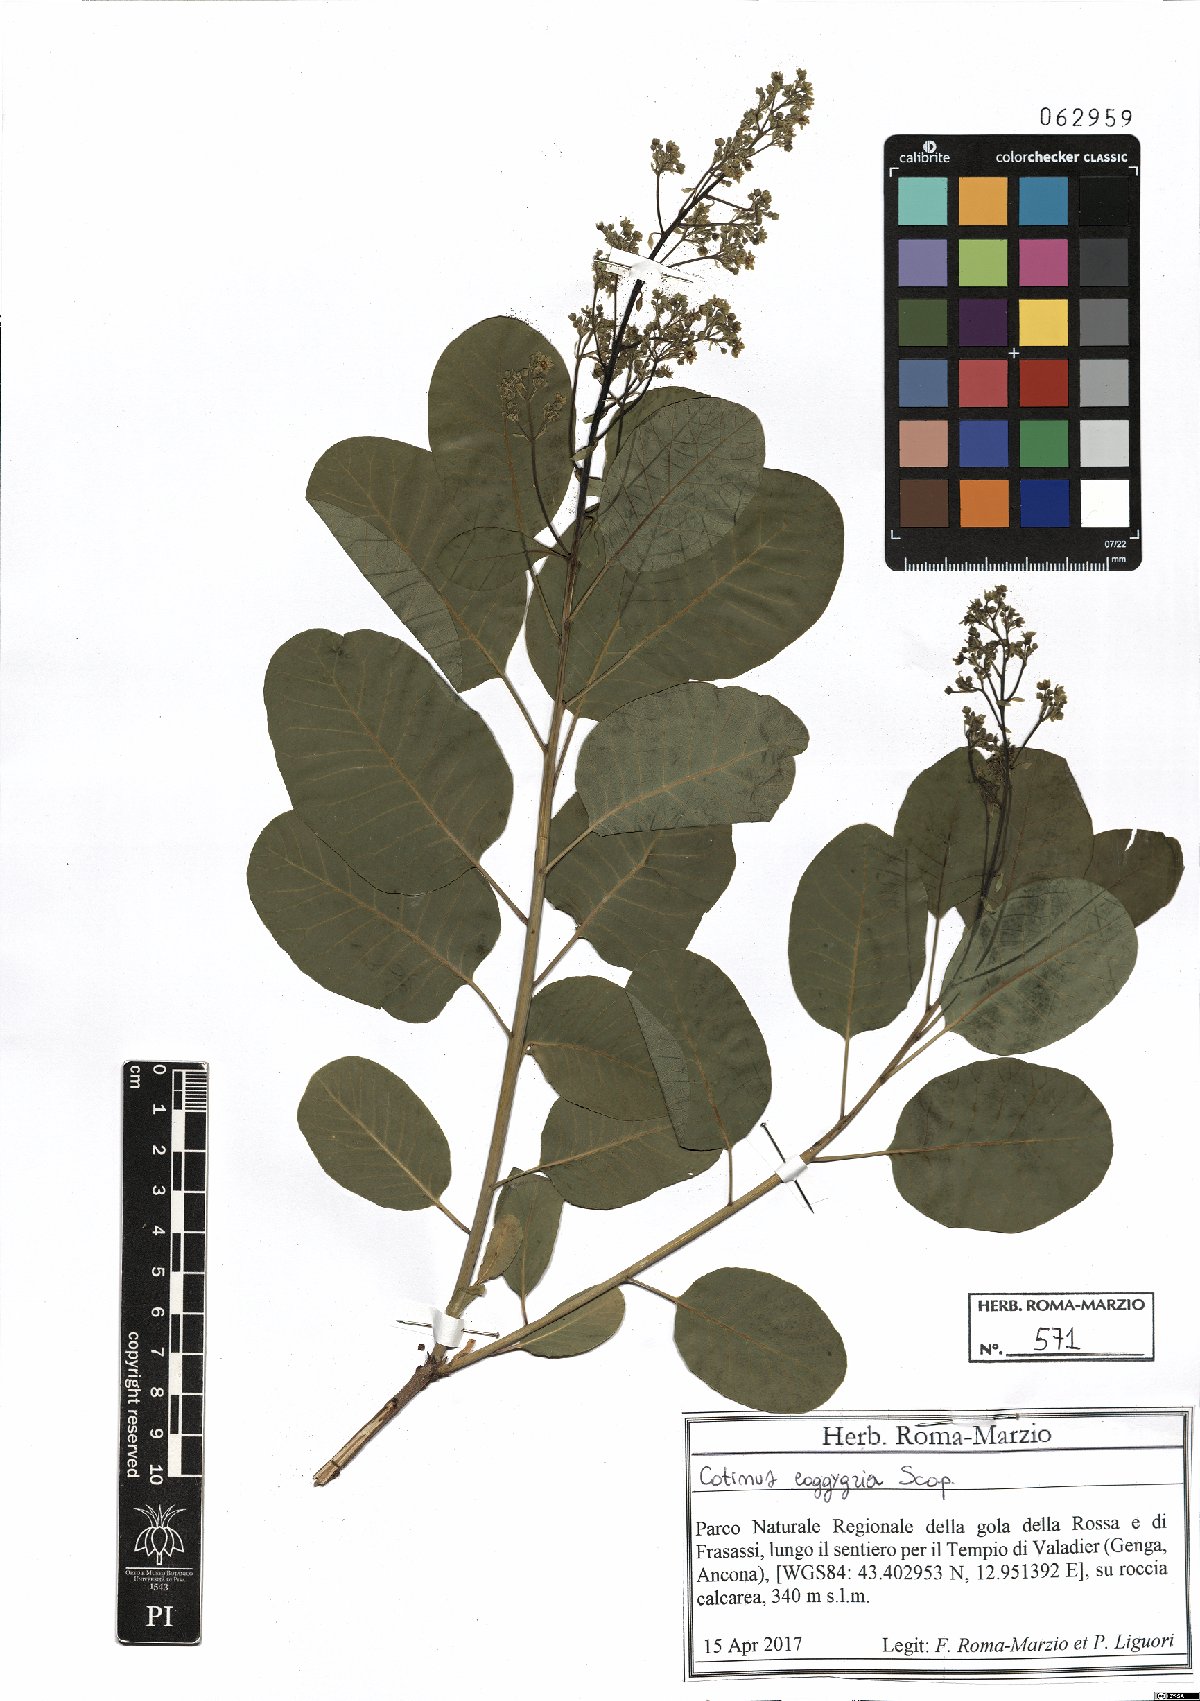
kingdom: Plantae
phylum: Tracheophyta
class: Magnoliopsida
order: Sapindales
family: Anacardiaceae
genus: Cotinus
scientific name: Cotinus coggygria
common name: Smoke-tree
